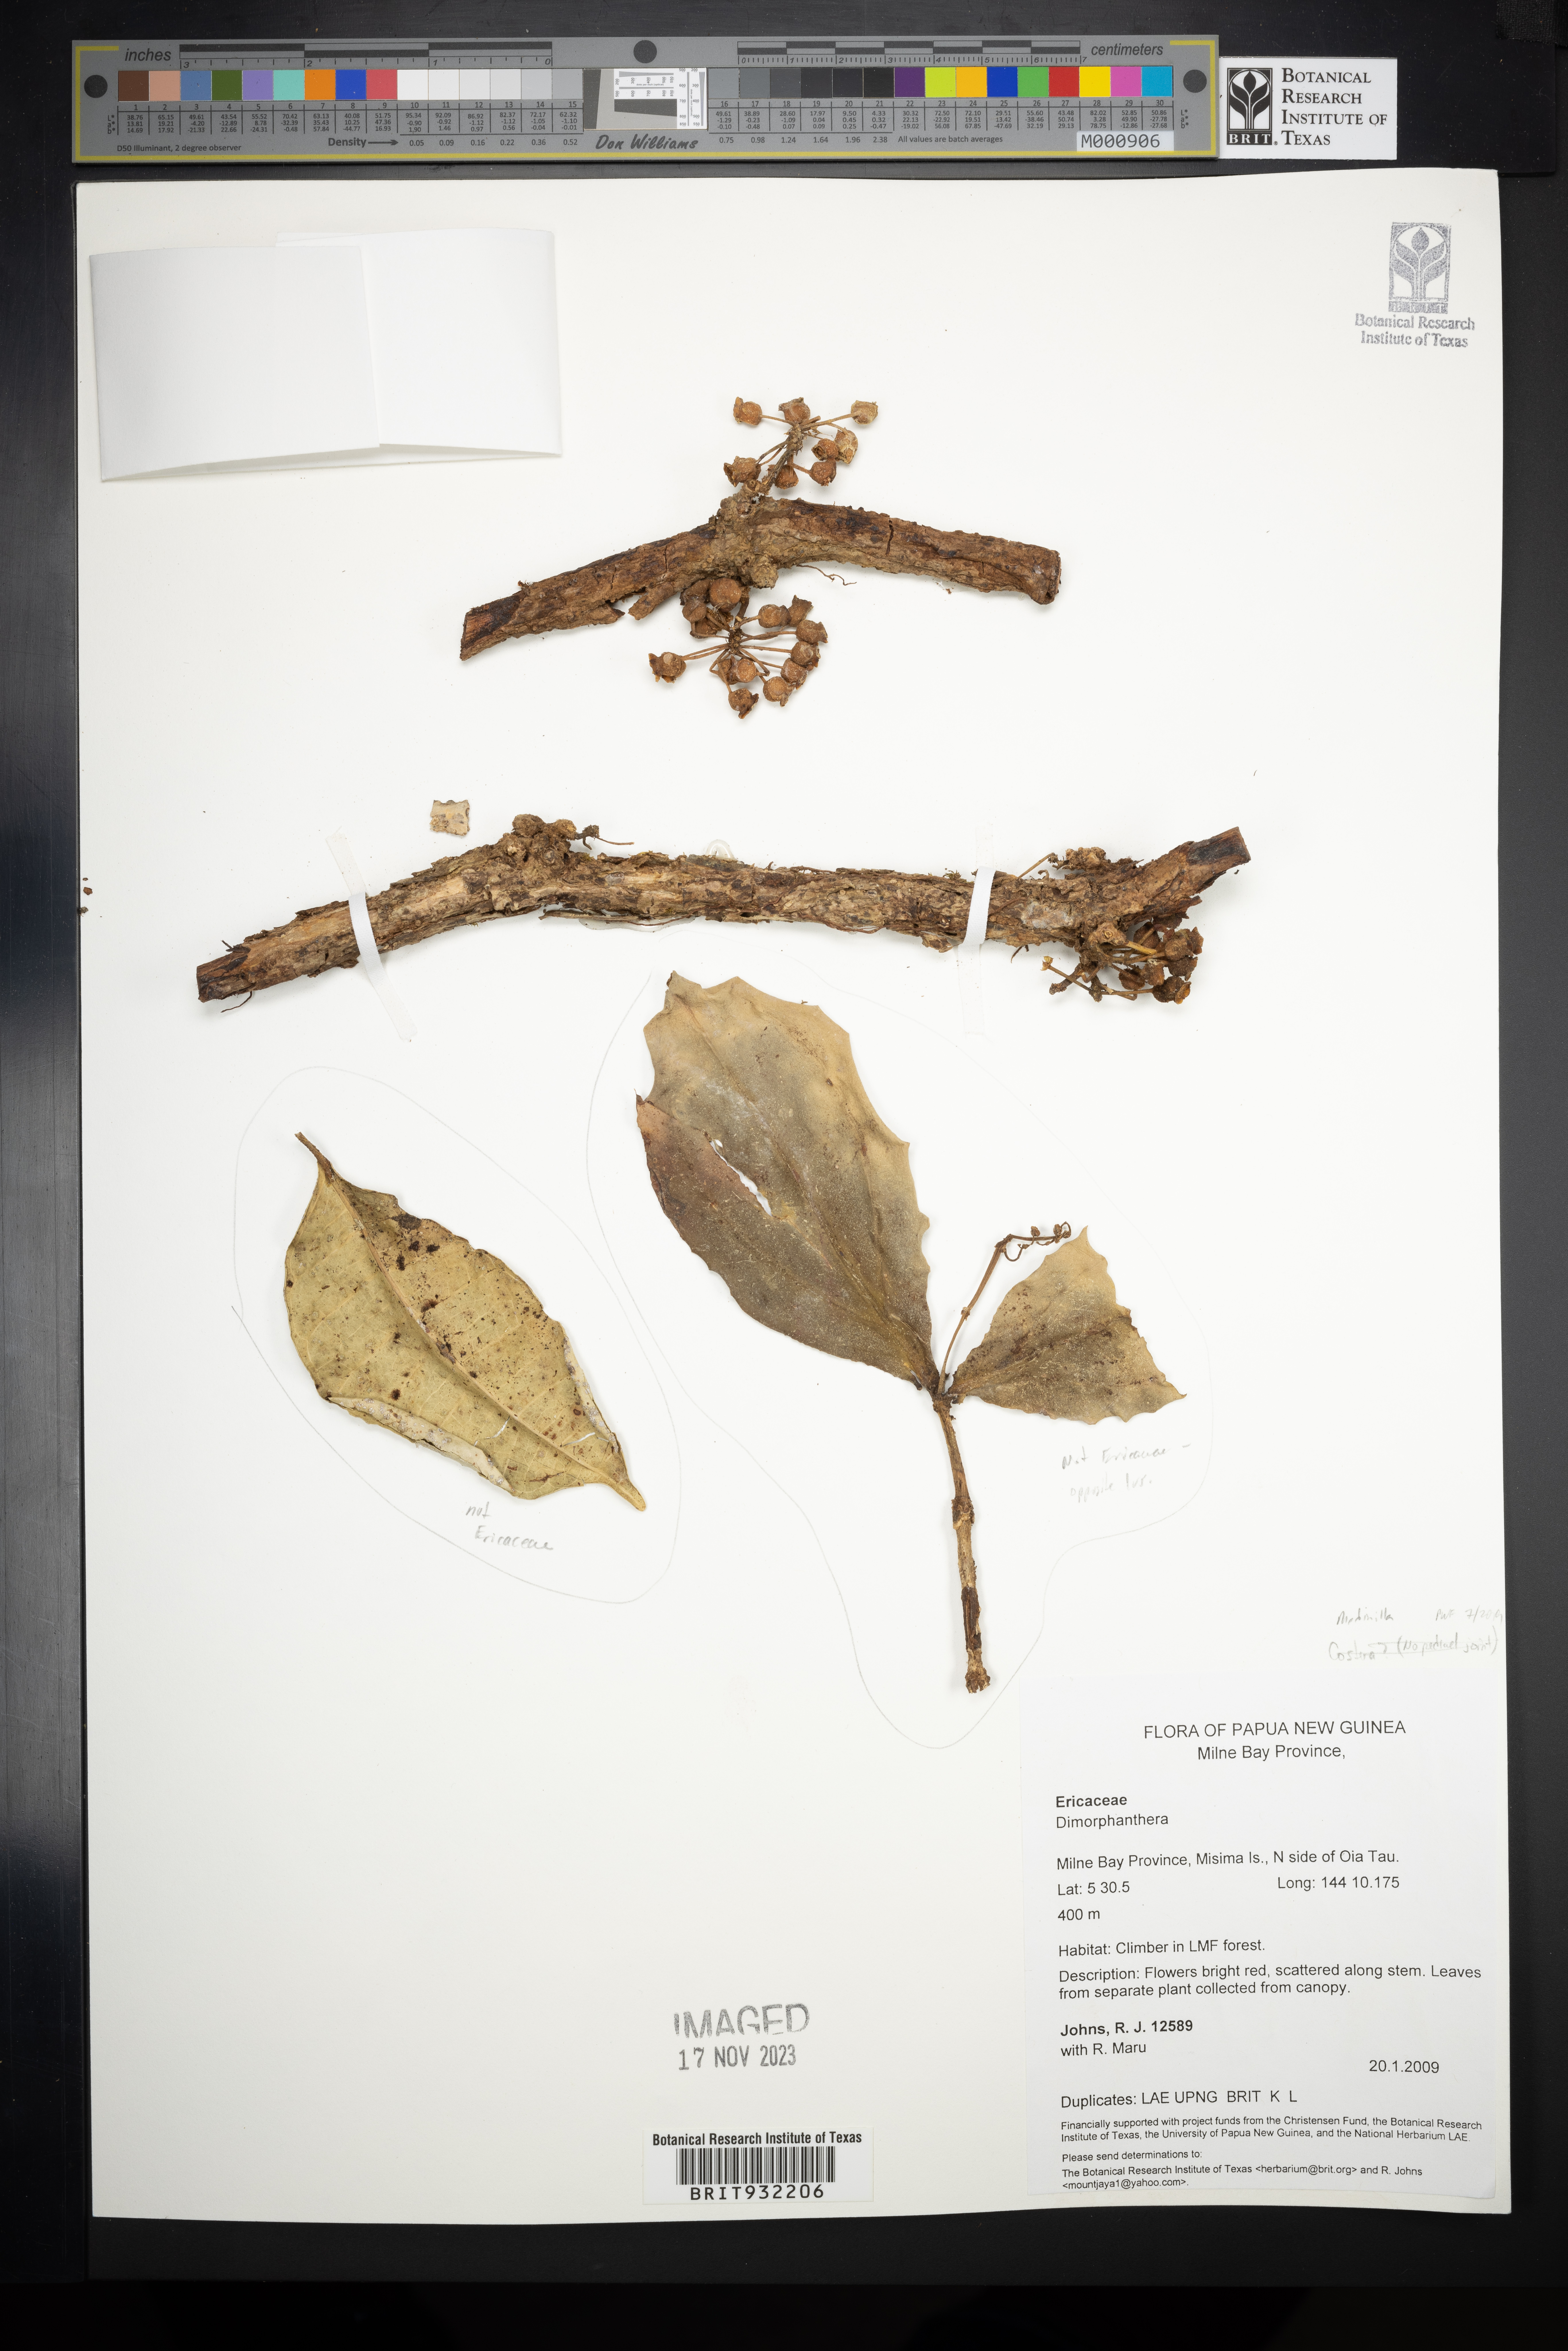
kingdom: Plantae
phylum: Tracheophyta
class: Magnoliopsida
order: Myrtales
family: Melastomataceae
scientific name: Melastomataceae
